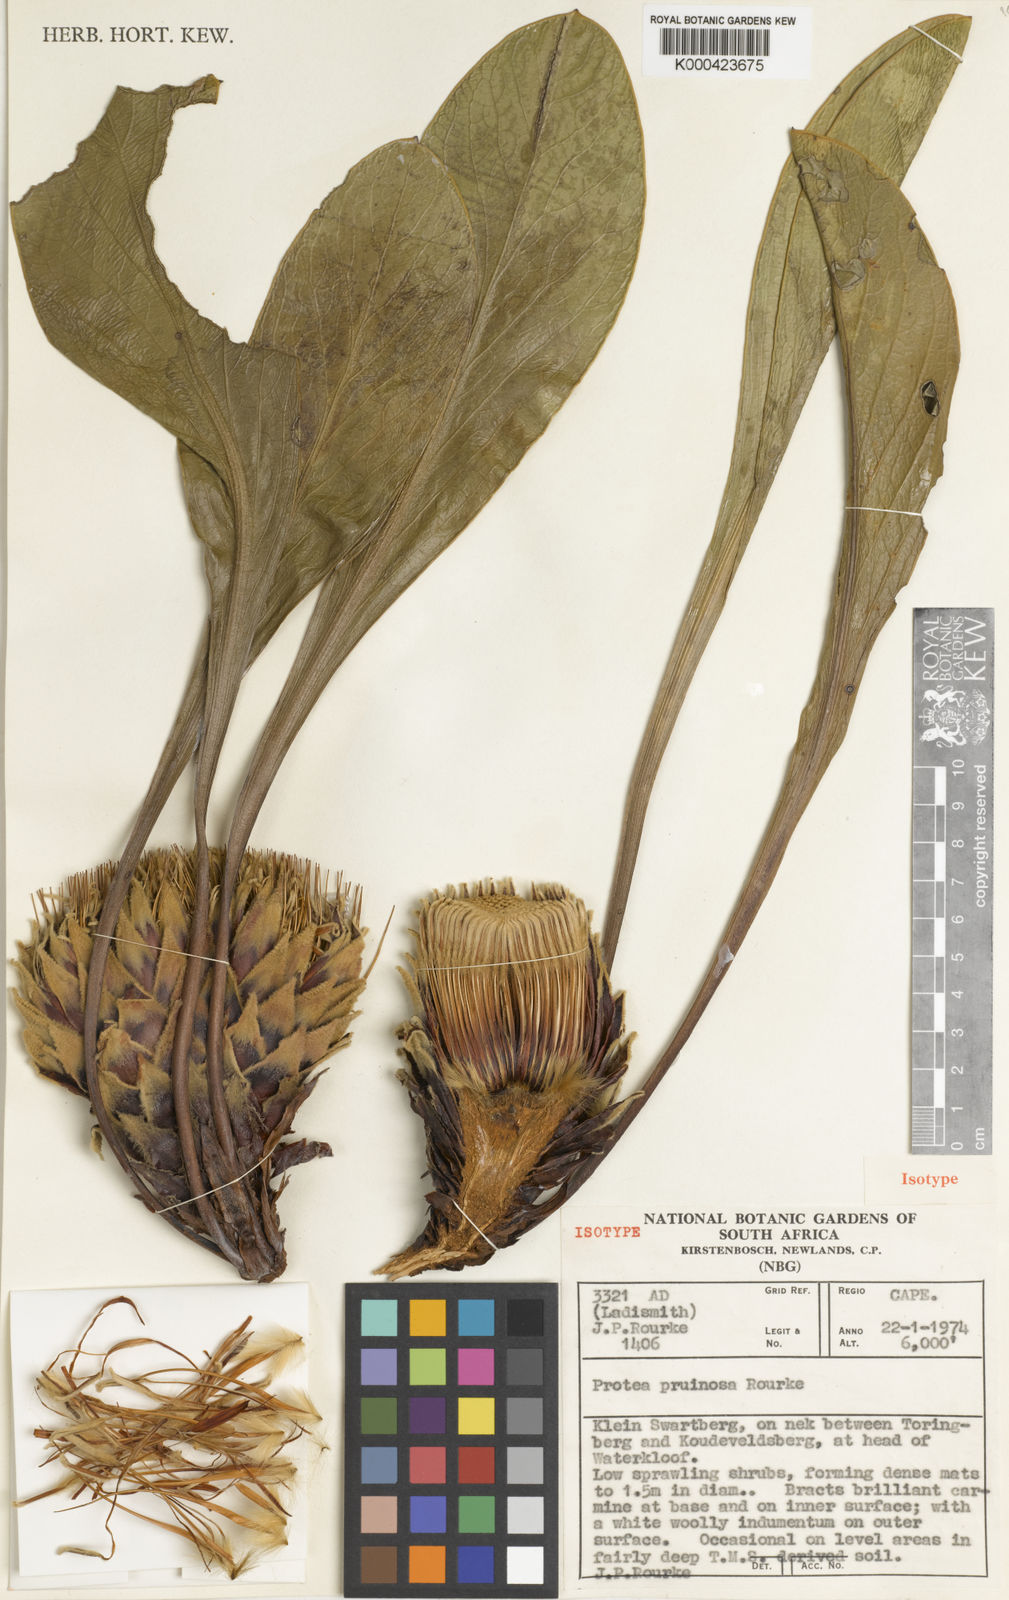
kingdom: Plantae
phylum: Tracheophyta
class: Magnoliopsida
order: Proteales
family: Proteaceae
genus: Protea
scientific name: Protea pruinosa
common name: Frosted sugarbush
